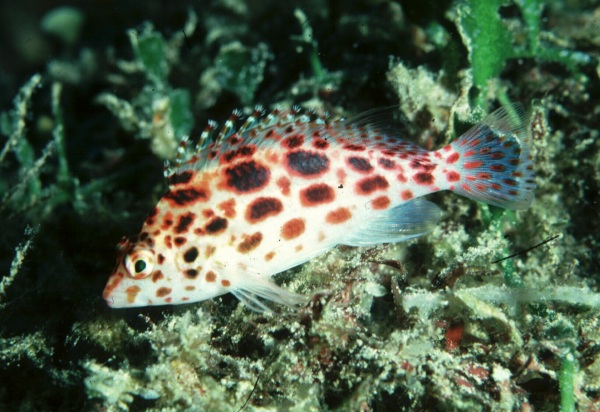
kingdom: Animalia
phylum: Chordata
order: Perciformes
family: Cirrhitidae
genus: Cirrhitichthys
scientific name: Cirrhitichthys oxycephalus
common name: Spotted hawkfish
